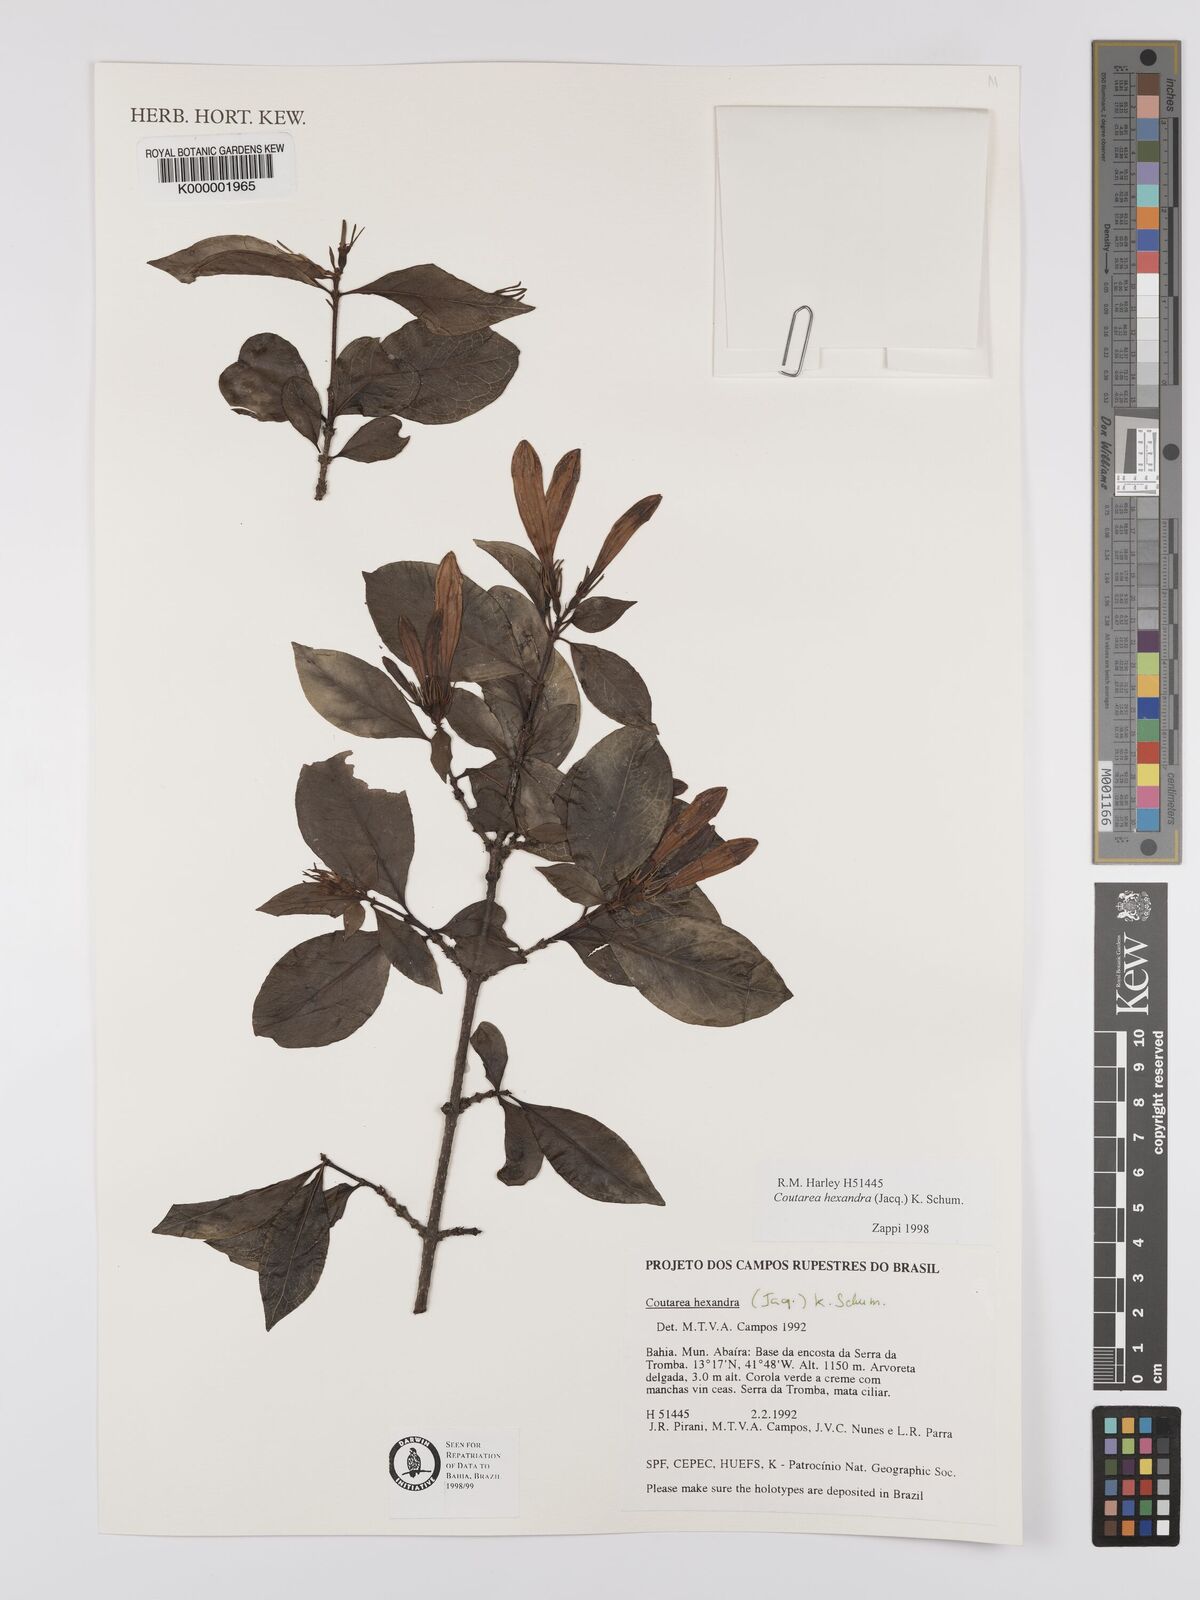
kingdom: Plantae
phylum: Tracheophyta
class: Magnoliopsida
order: Gentianales
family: Rubiaceae
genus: Coutarea
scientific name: Coutarea hexandra
